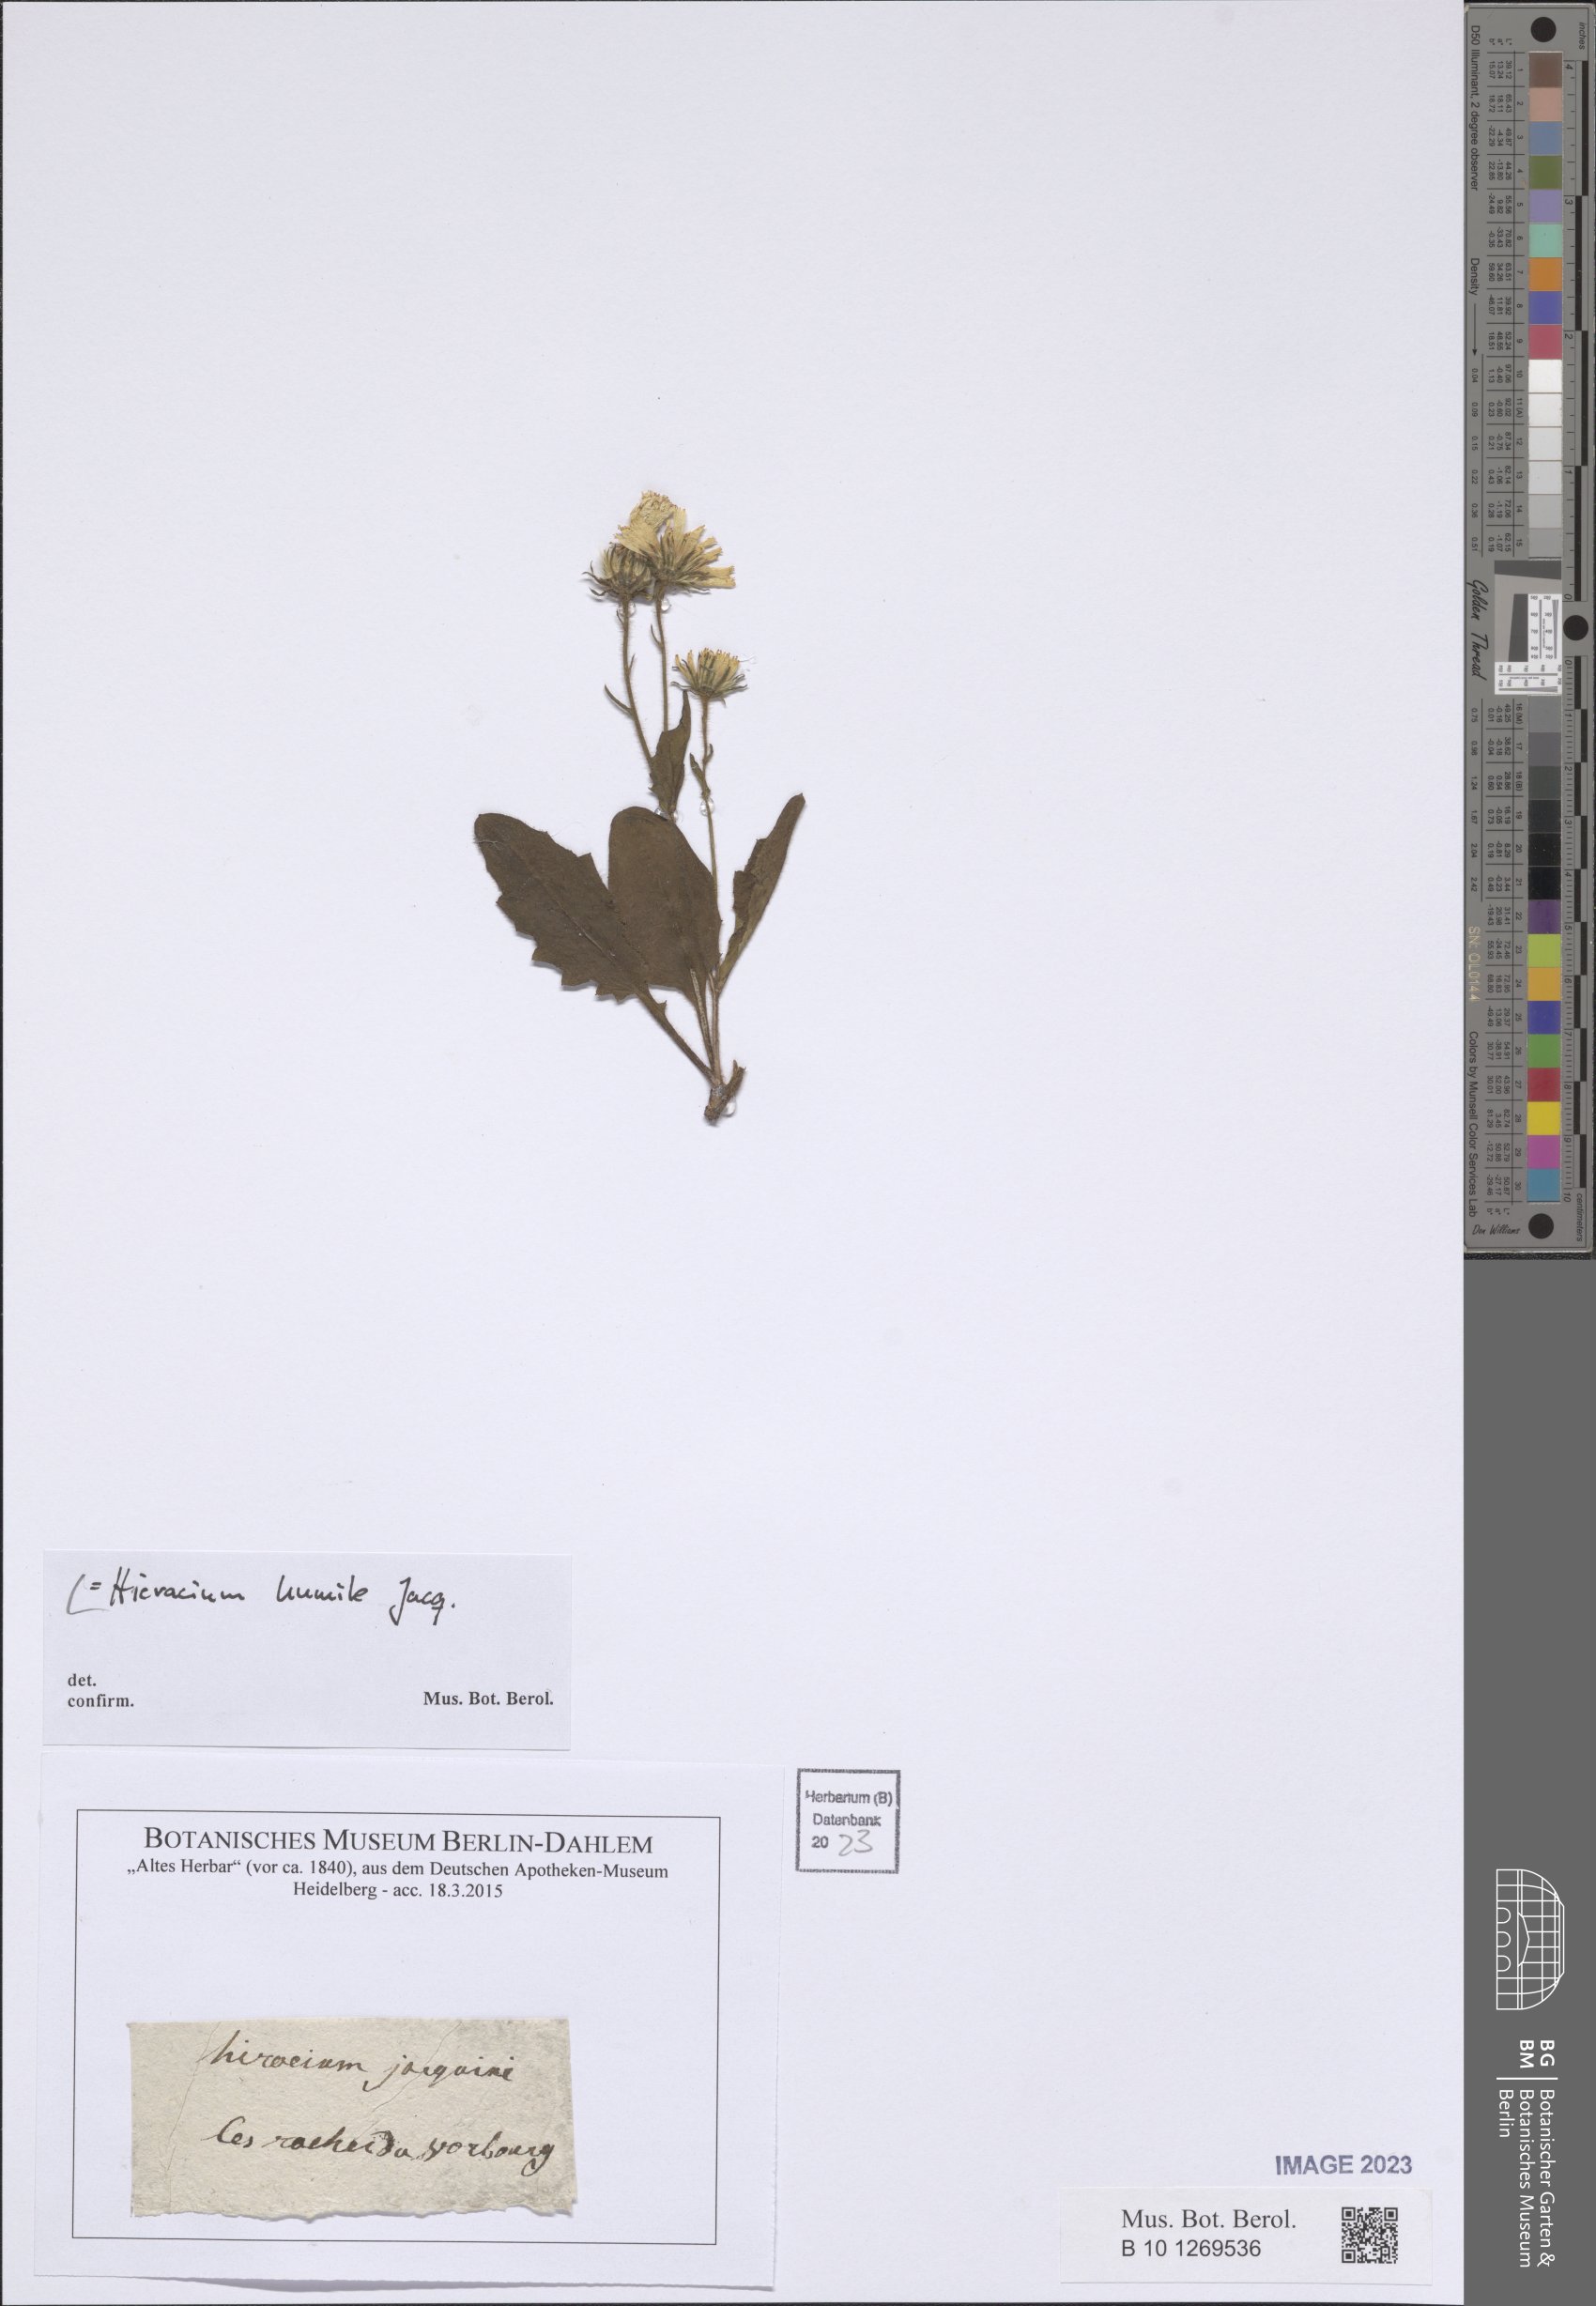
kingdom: Plantae
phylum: Tracheophyta
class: Magnoliopsida
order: Asterales
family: Asteraceae
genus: Hieracium
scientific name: Hieracium humile
